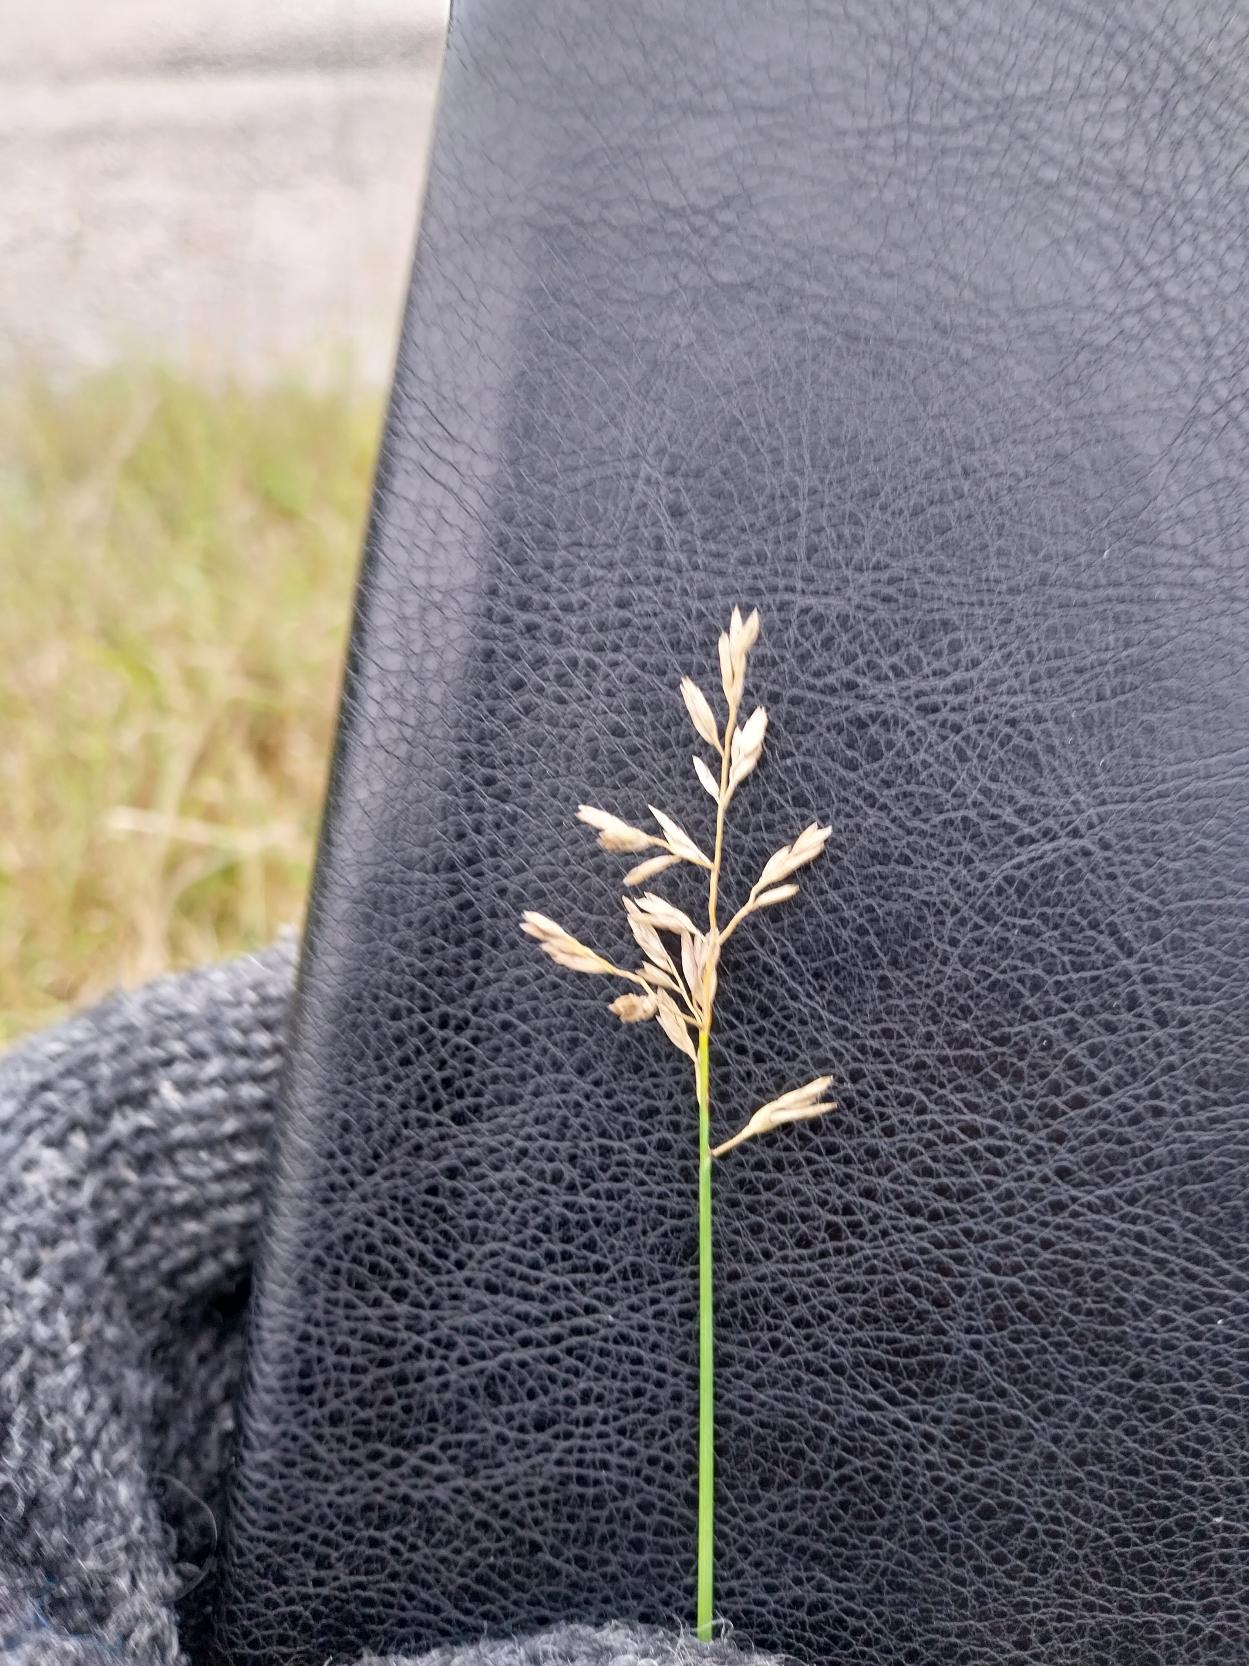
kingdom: Plantae
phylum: Tracheophyta
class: Liliopsida
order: Poales
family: Poaceae
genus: Poa
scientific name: Poa compressa
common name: Fladstrået rapgræs
